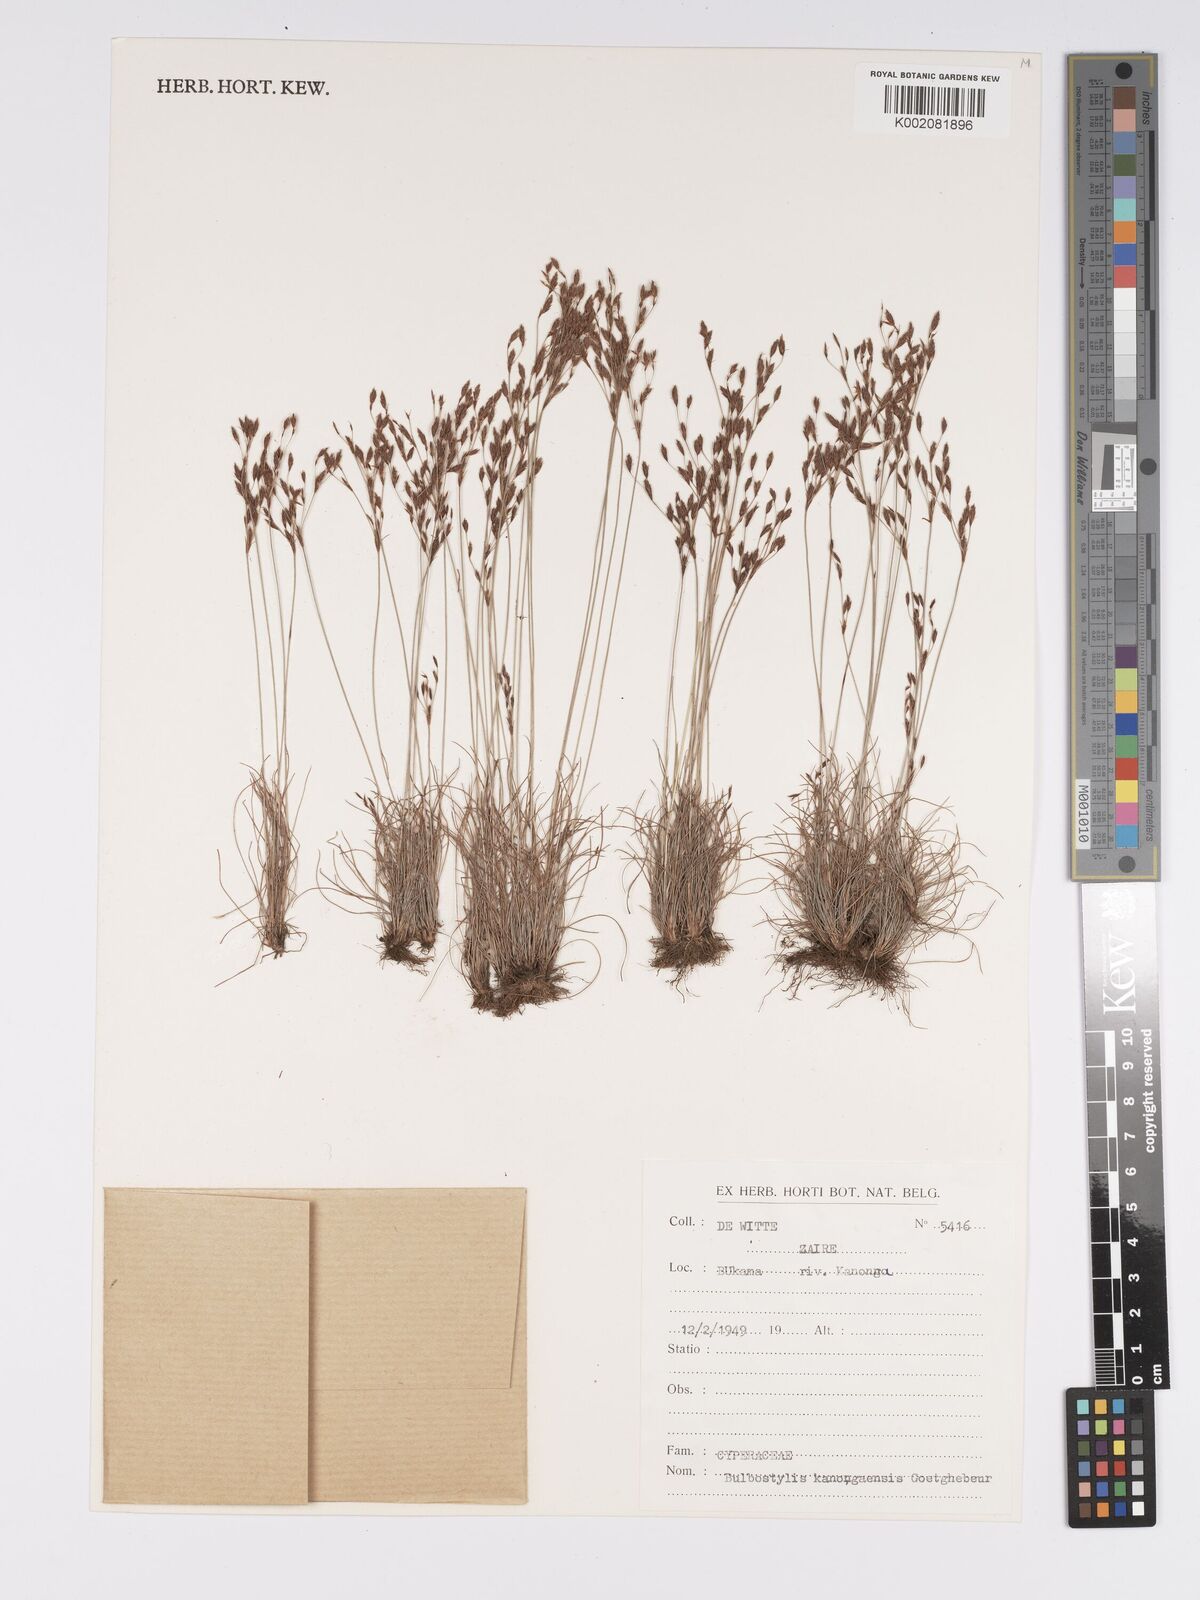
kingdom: Plantae
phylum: Tracheophyta
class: Liliopsida
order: Poales
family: Cyperaceae
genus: Bulbostylis
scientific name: Bulbostylis kanongaensis
